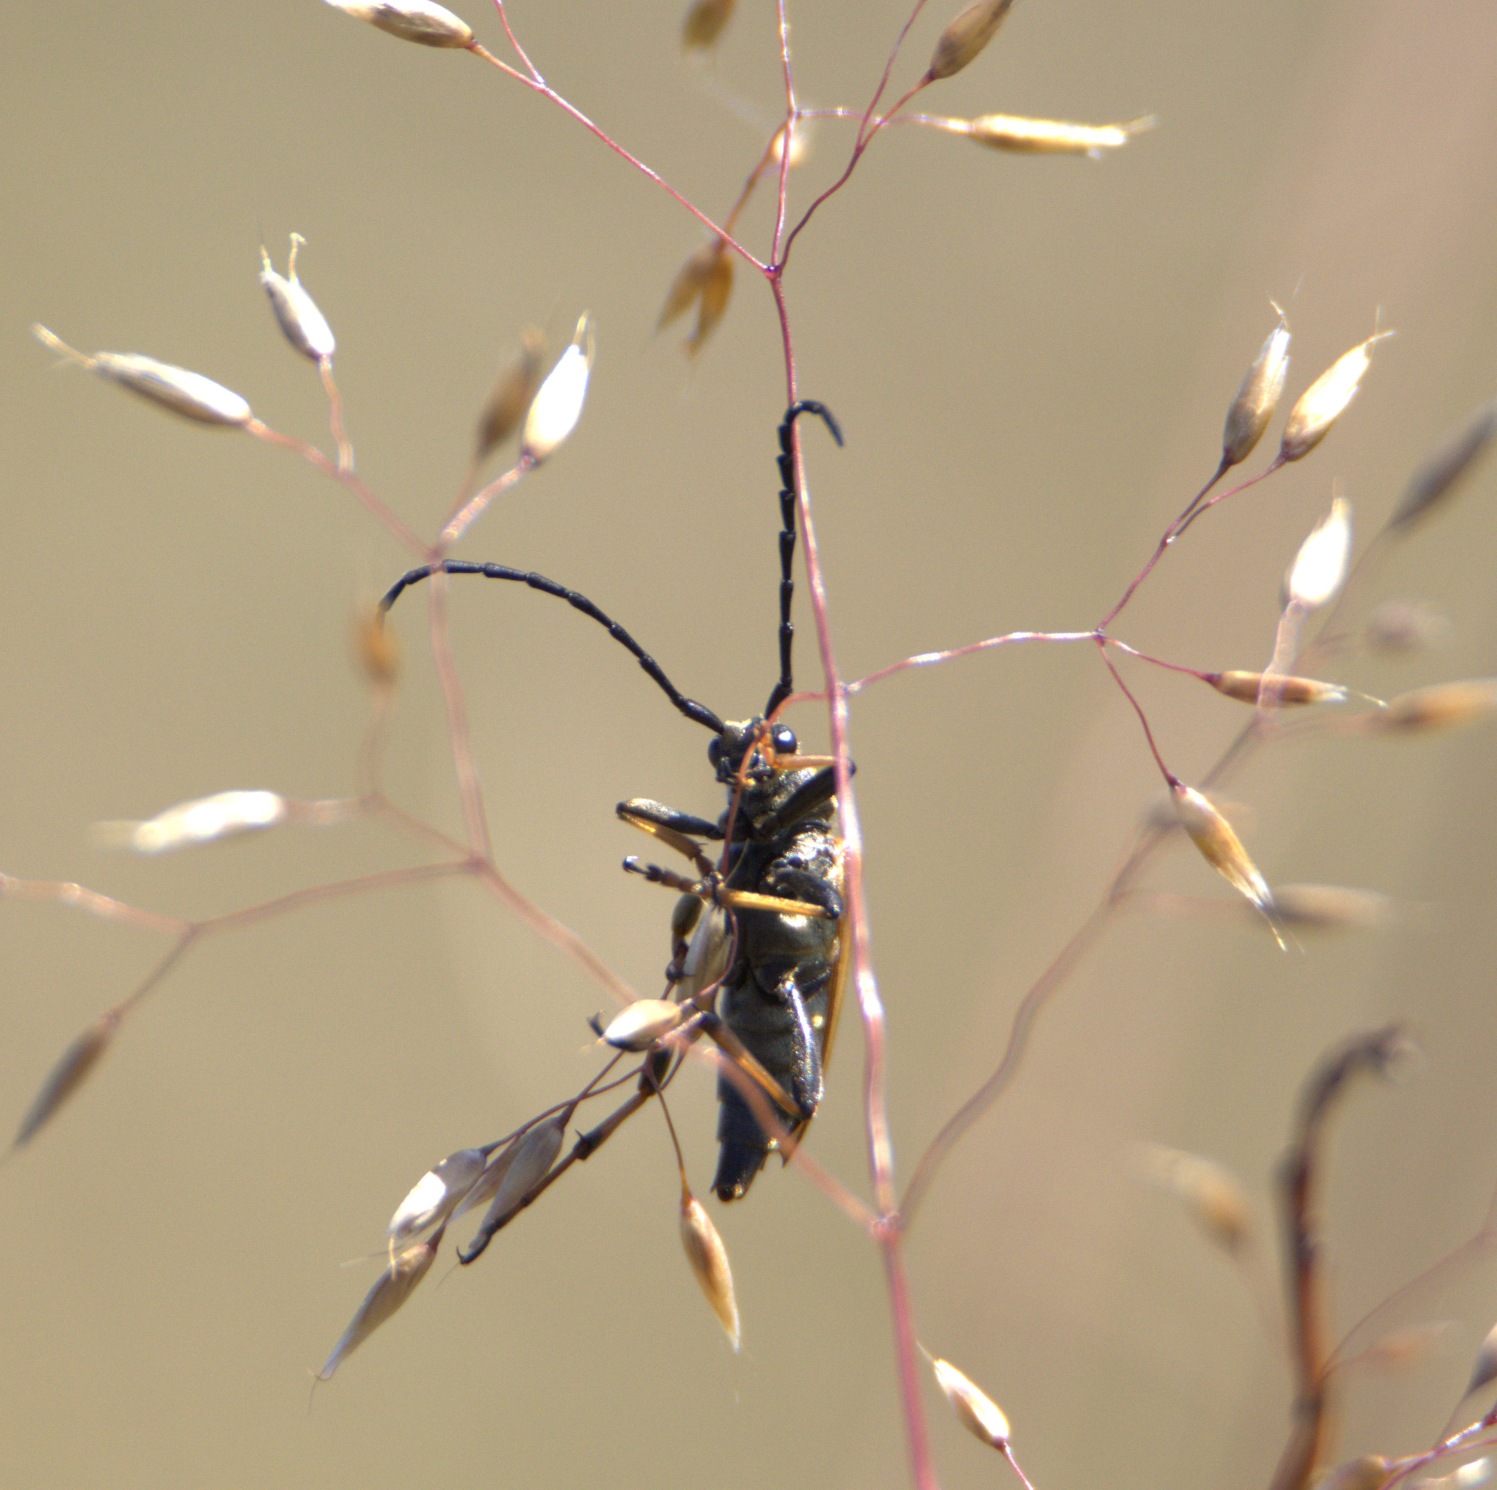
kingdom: Animalia
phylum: Arthropoda
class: Insecta
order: Coleoptera
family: Cerambycidae
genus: Stictoleptura
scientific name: Stictoleptura rubra
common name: Rød blomsterbuk
